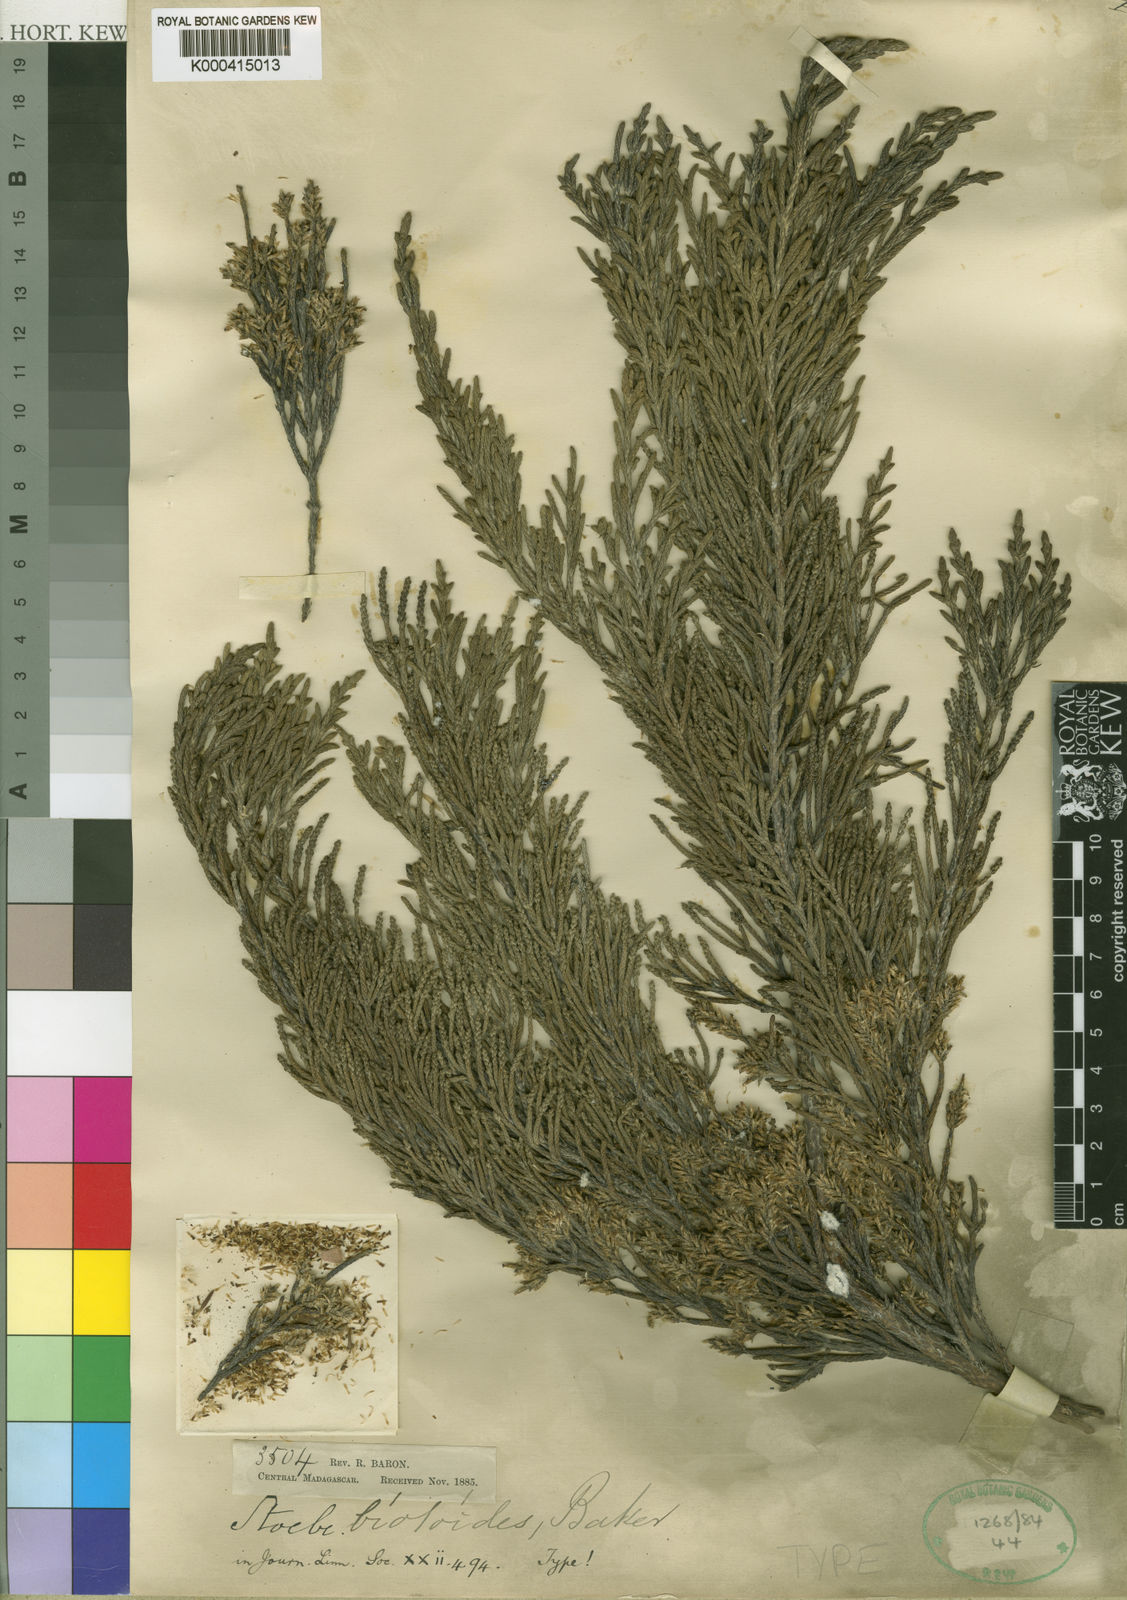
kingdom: Plantae
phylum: Tracheophyta
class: Magnoliopsida
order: Asterales
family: Asteraceae
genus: Seriphium
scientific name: Seriphium cryptophyllum
